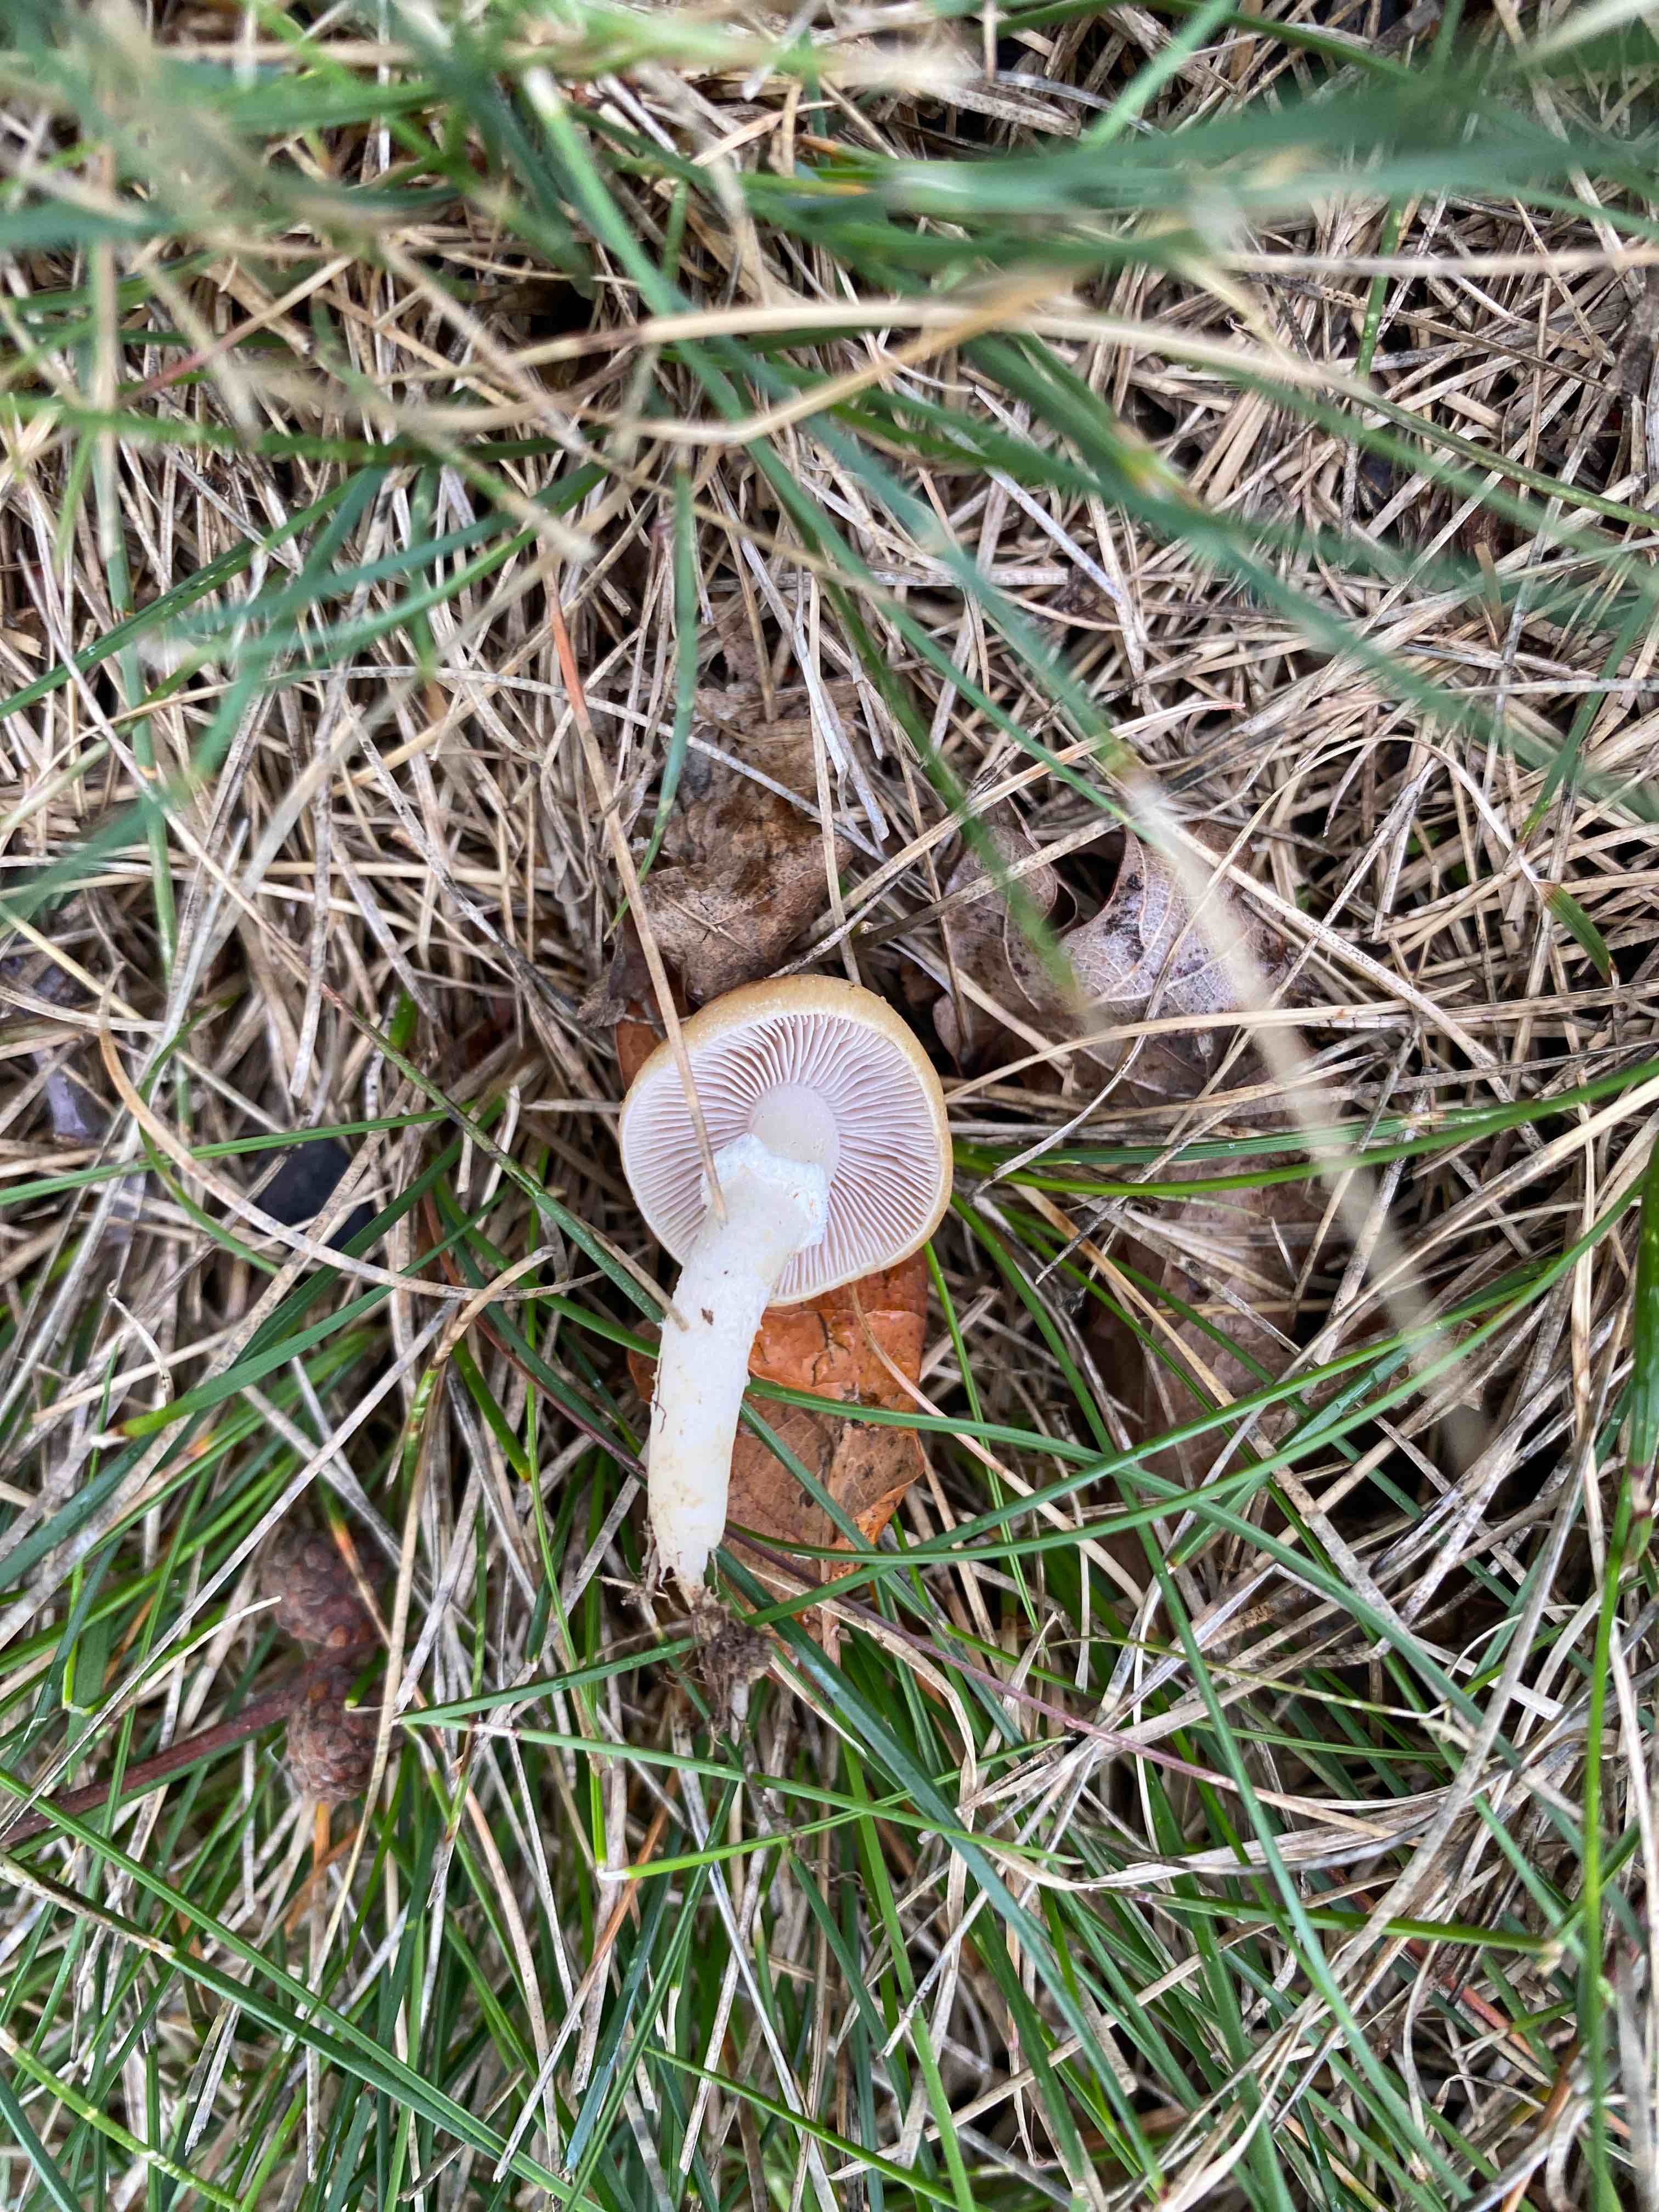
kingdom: Fungi
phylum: Basidiomycota
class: Agaricomycetes
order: Agaricales
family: Hymenogastraceae
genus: Psilocybe
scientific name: Psilocybe coronilla
